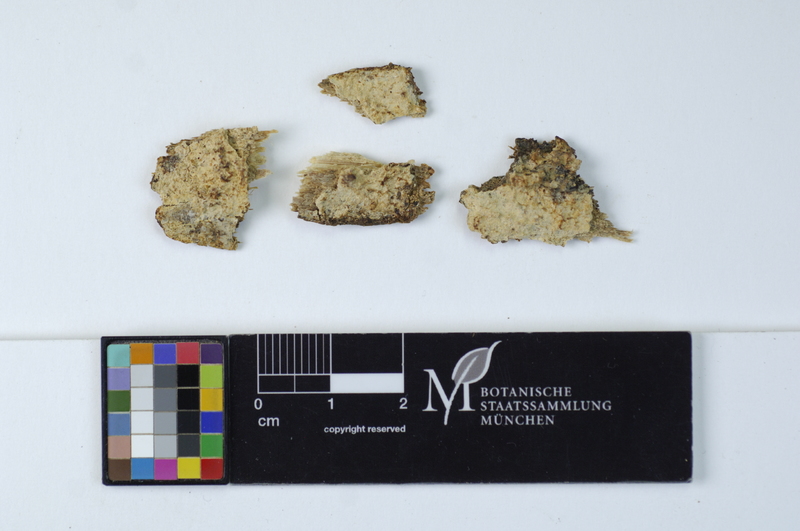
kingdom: Fungi
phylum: Basidiomycota
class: Agaricomycetes
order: Hymenochaetales
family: Schizoporaceae
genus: Xylodon
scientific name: Xylodon radula
